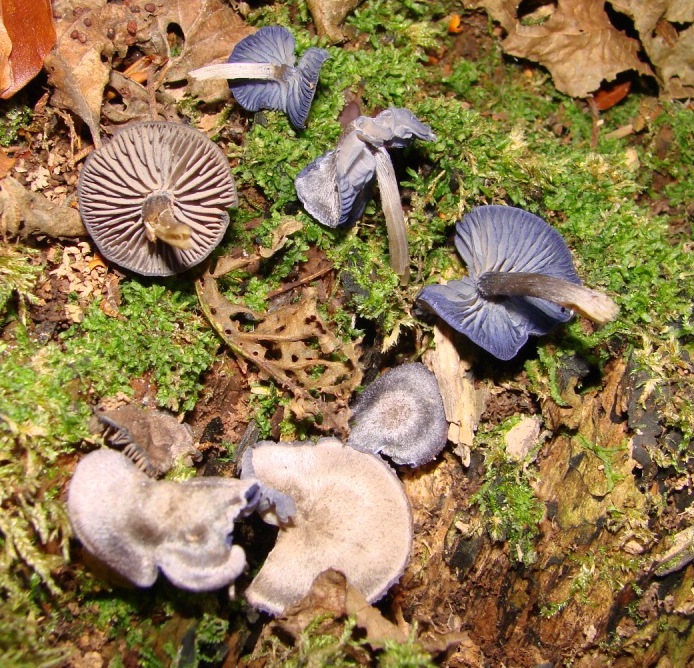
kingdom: Fungi
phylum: Basidiomycota
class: Agaricomycetes
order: Agaricales
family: Entolomataceae
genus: Entoloma
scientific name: Entoloma euchroum
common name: smuk rødblad
